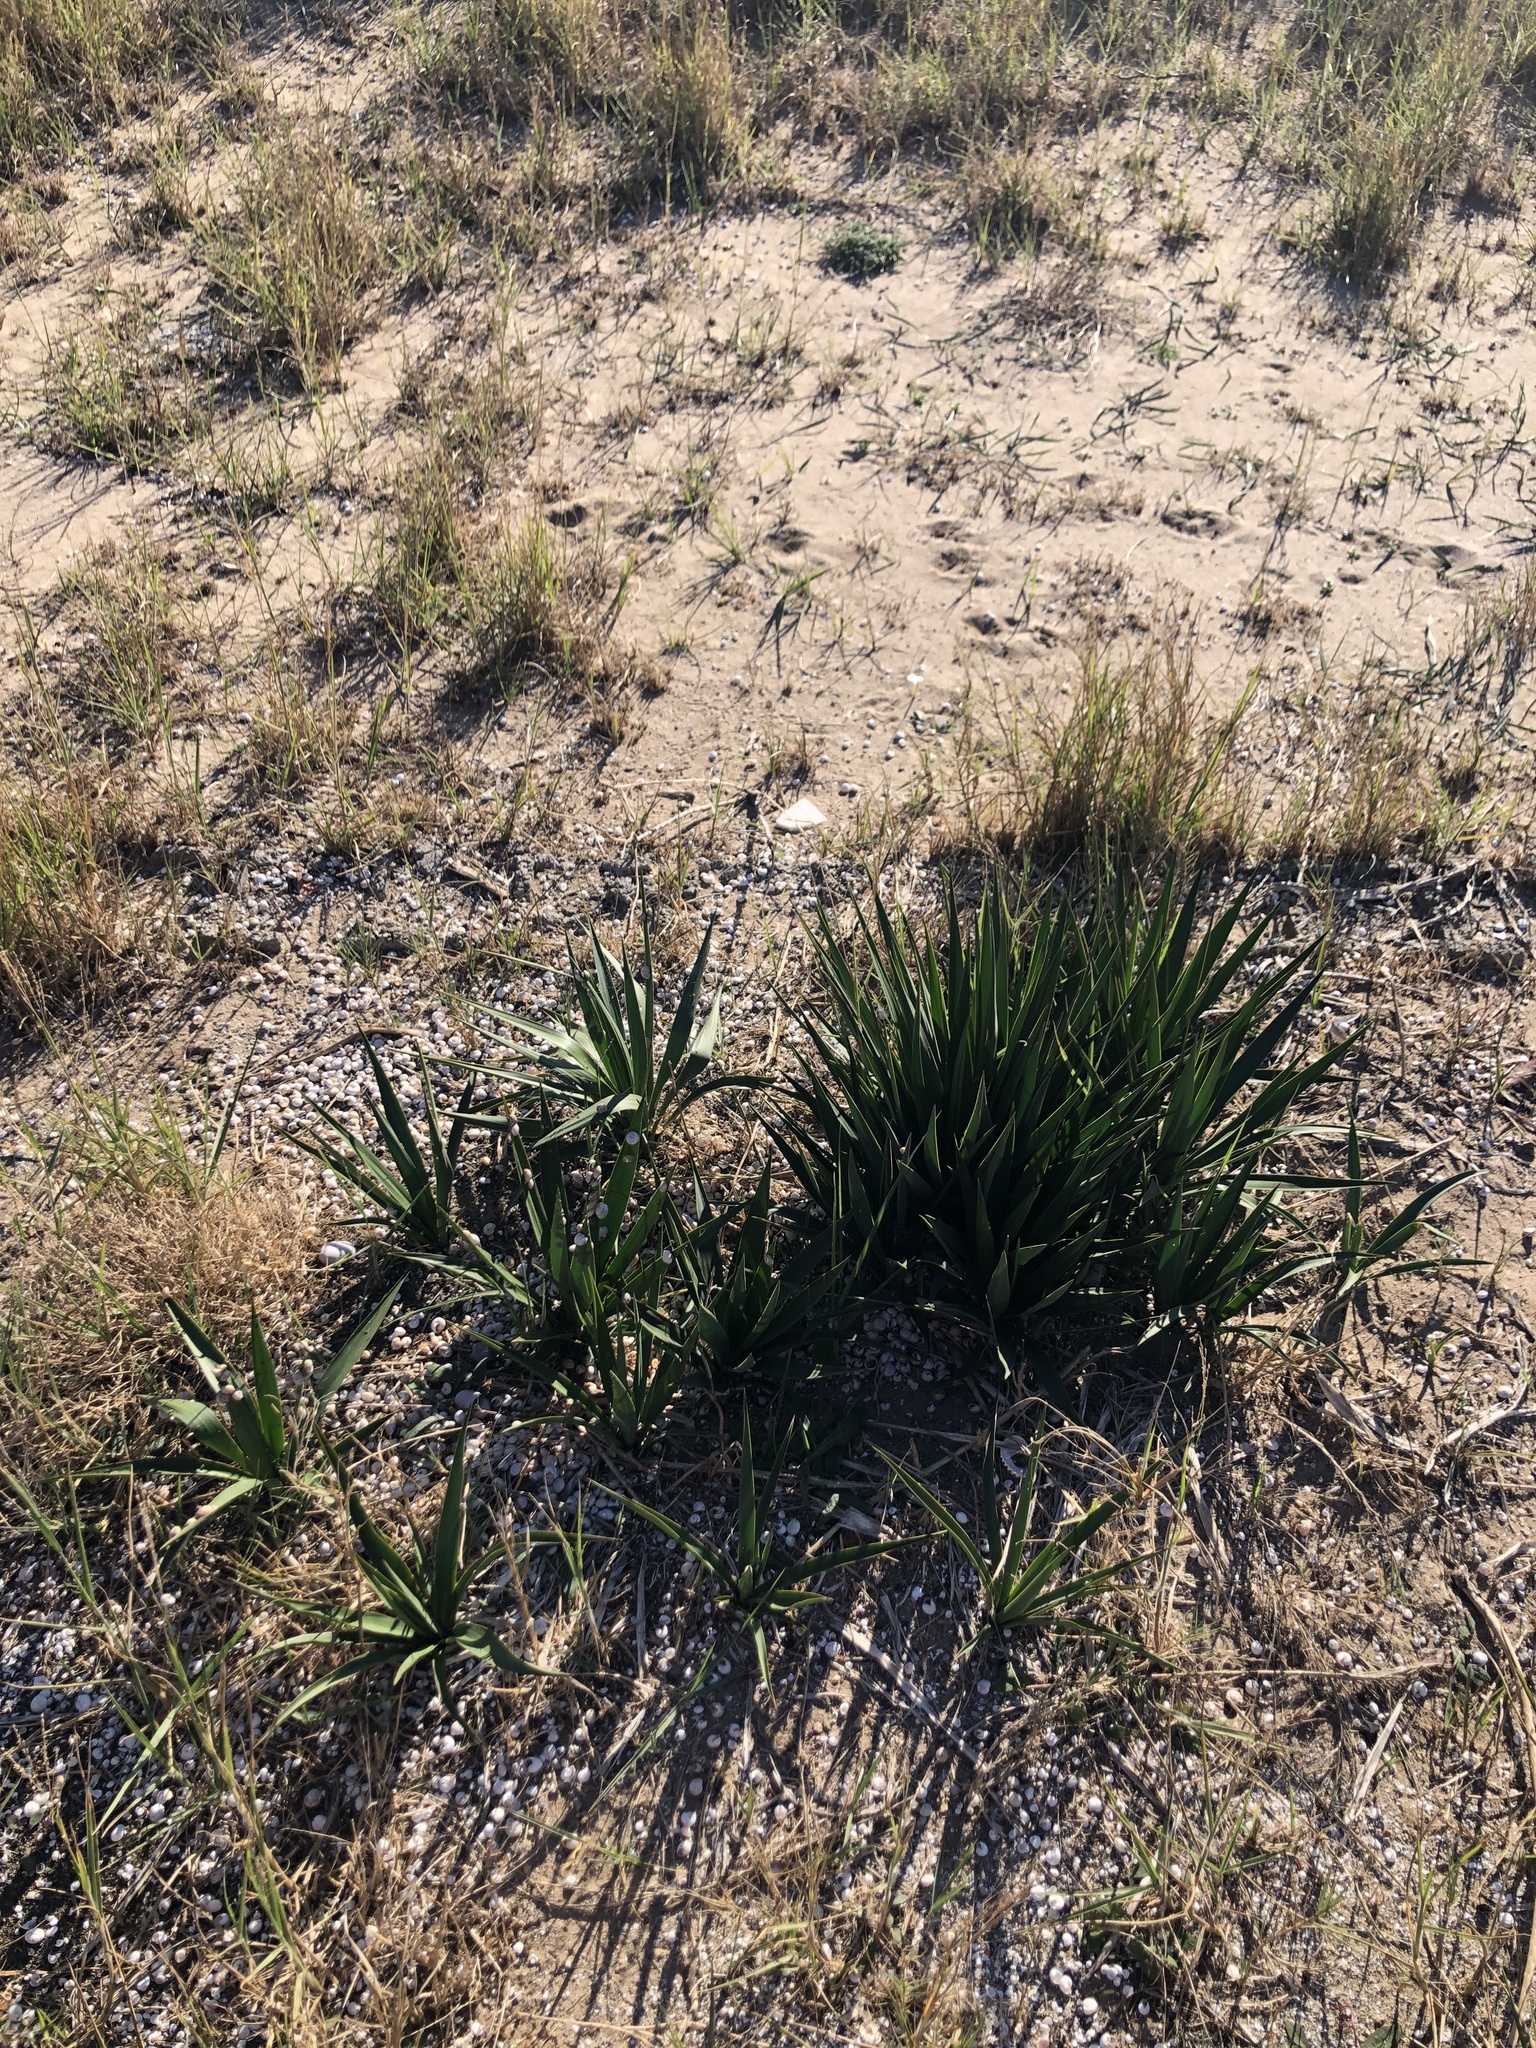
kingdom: Plantae
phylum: Tracheophyta
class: Liliopsida
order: Asparagales
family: Asparagaceae
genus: Yucca
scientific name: Yucca aloifolia
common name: Aloe yucca
